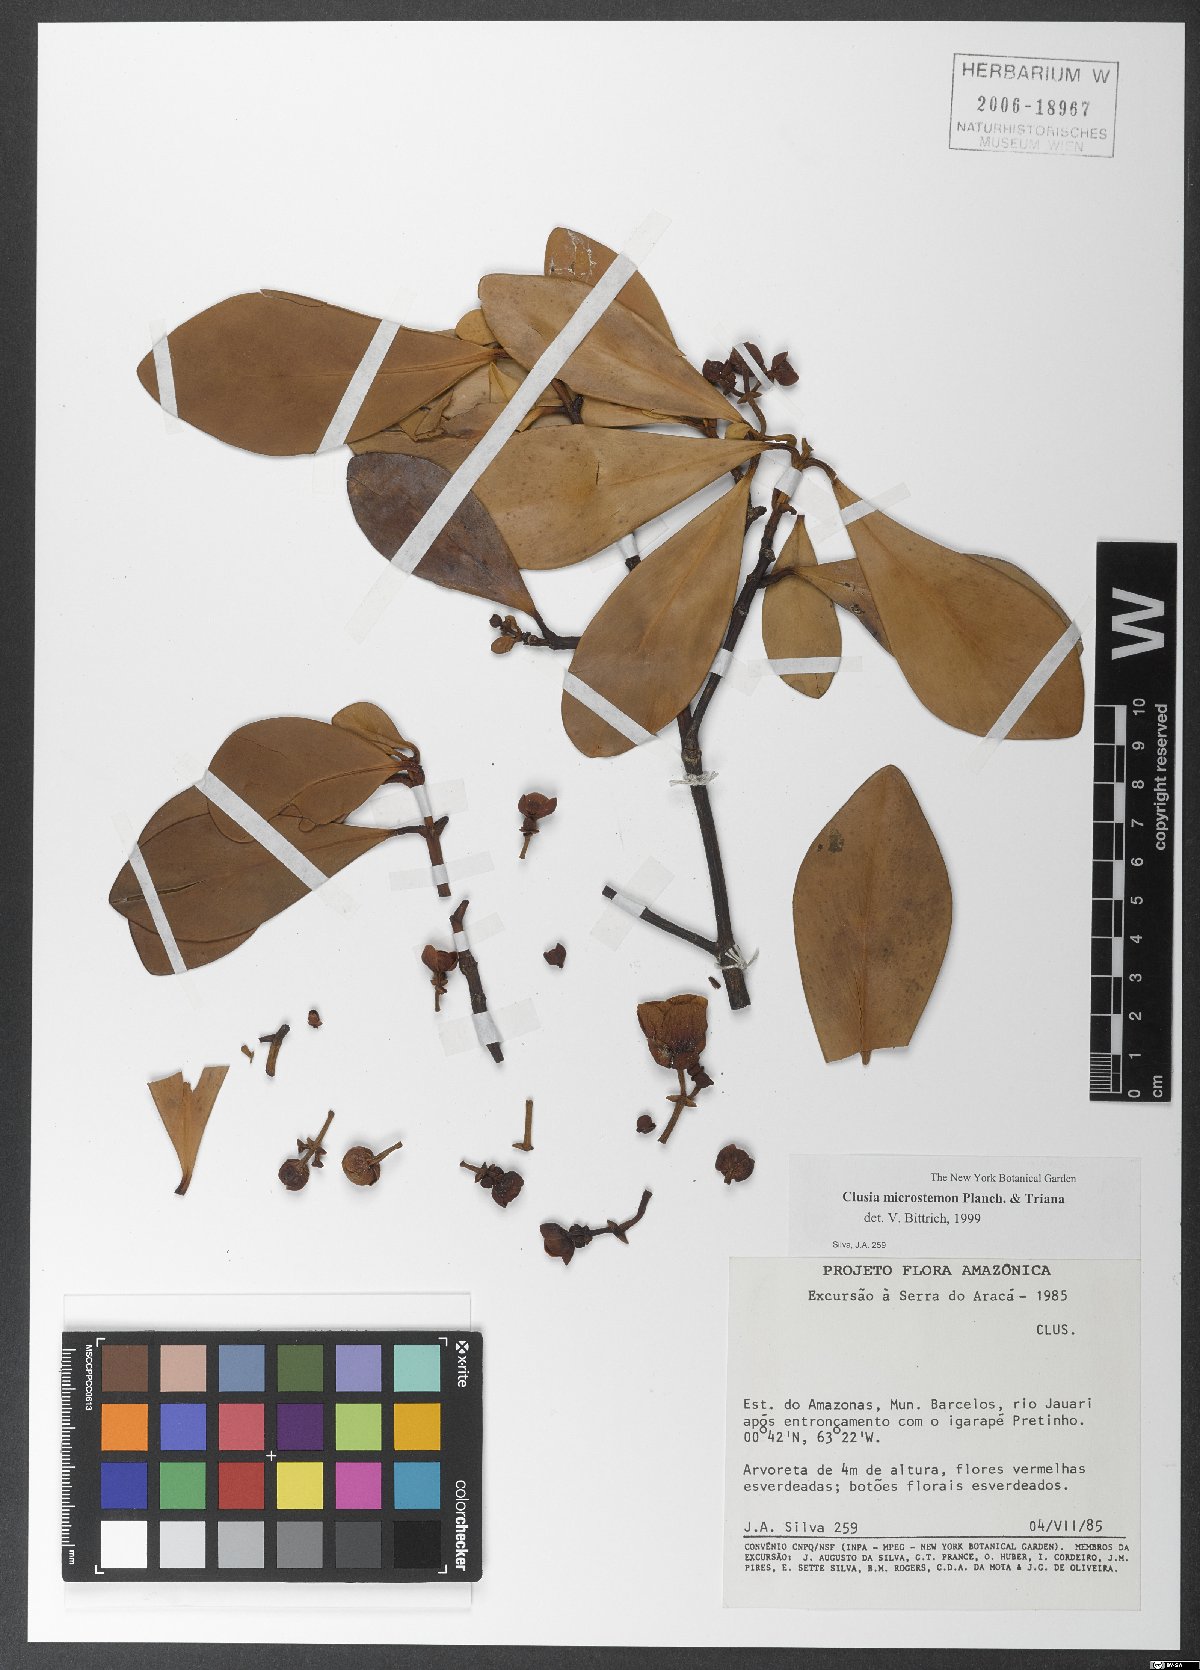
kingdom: Plantae
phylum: Tracheophyta
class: Magnoliopsida
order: Malpighiales
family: Clusiaceae
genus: Clusia
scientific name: Clusia microstemon
